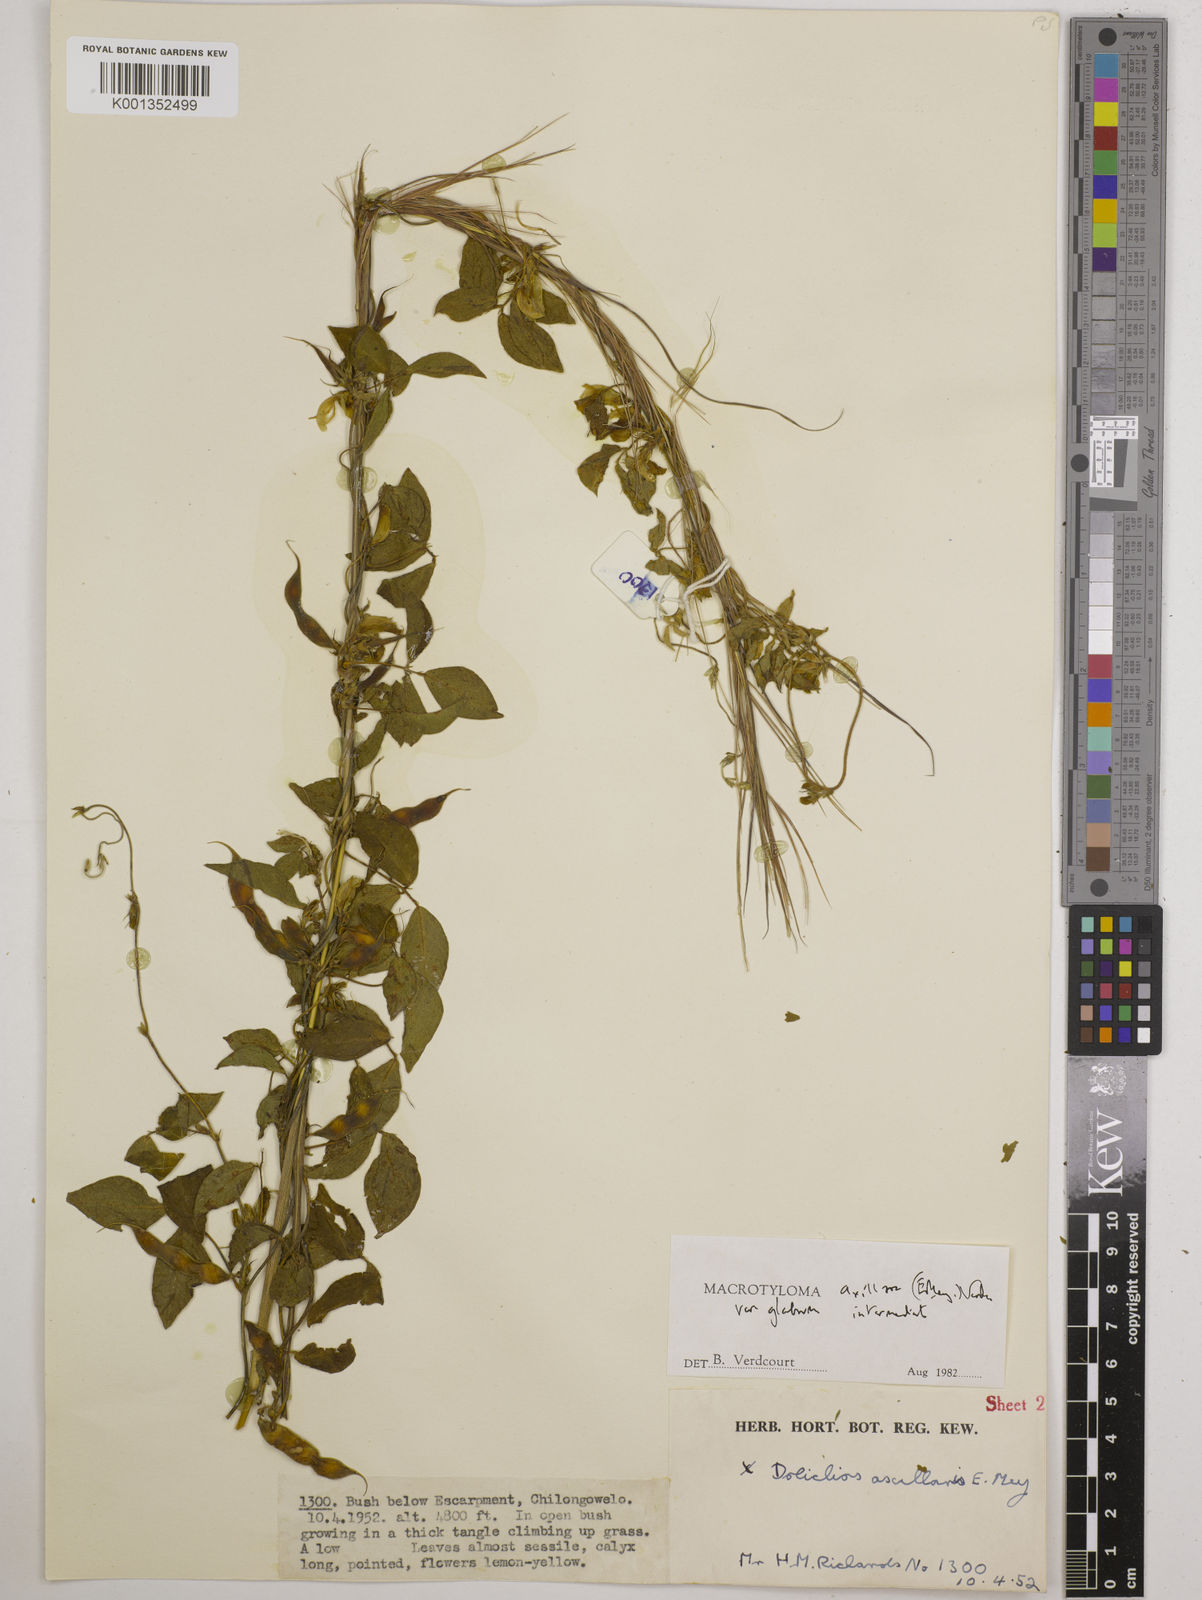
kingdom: Plantae
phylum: Tracheophyta
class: Magnoliopsida
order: Fabales
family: Fabaceae
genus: Macrotyloma
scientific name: Macrotyloma
